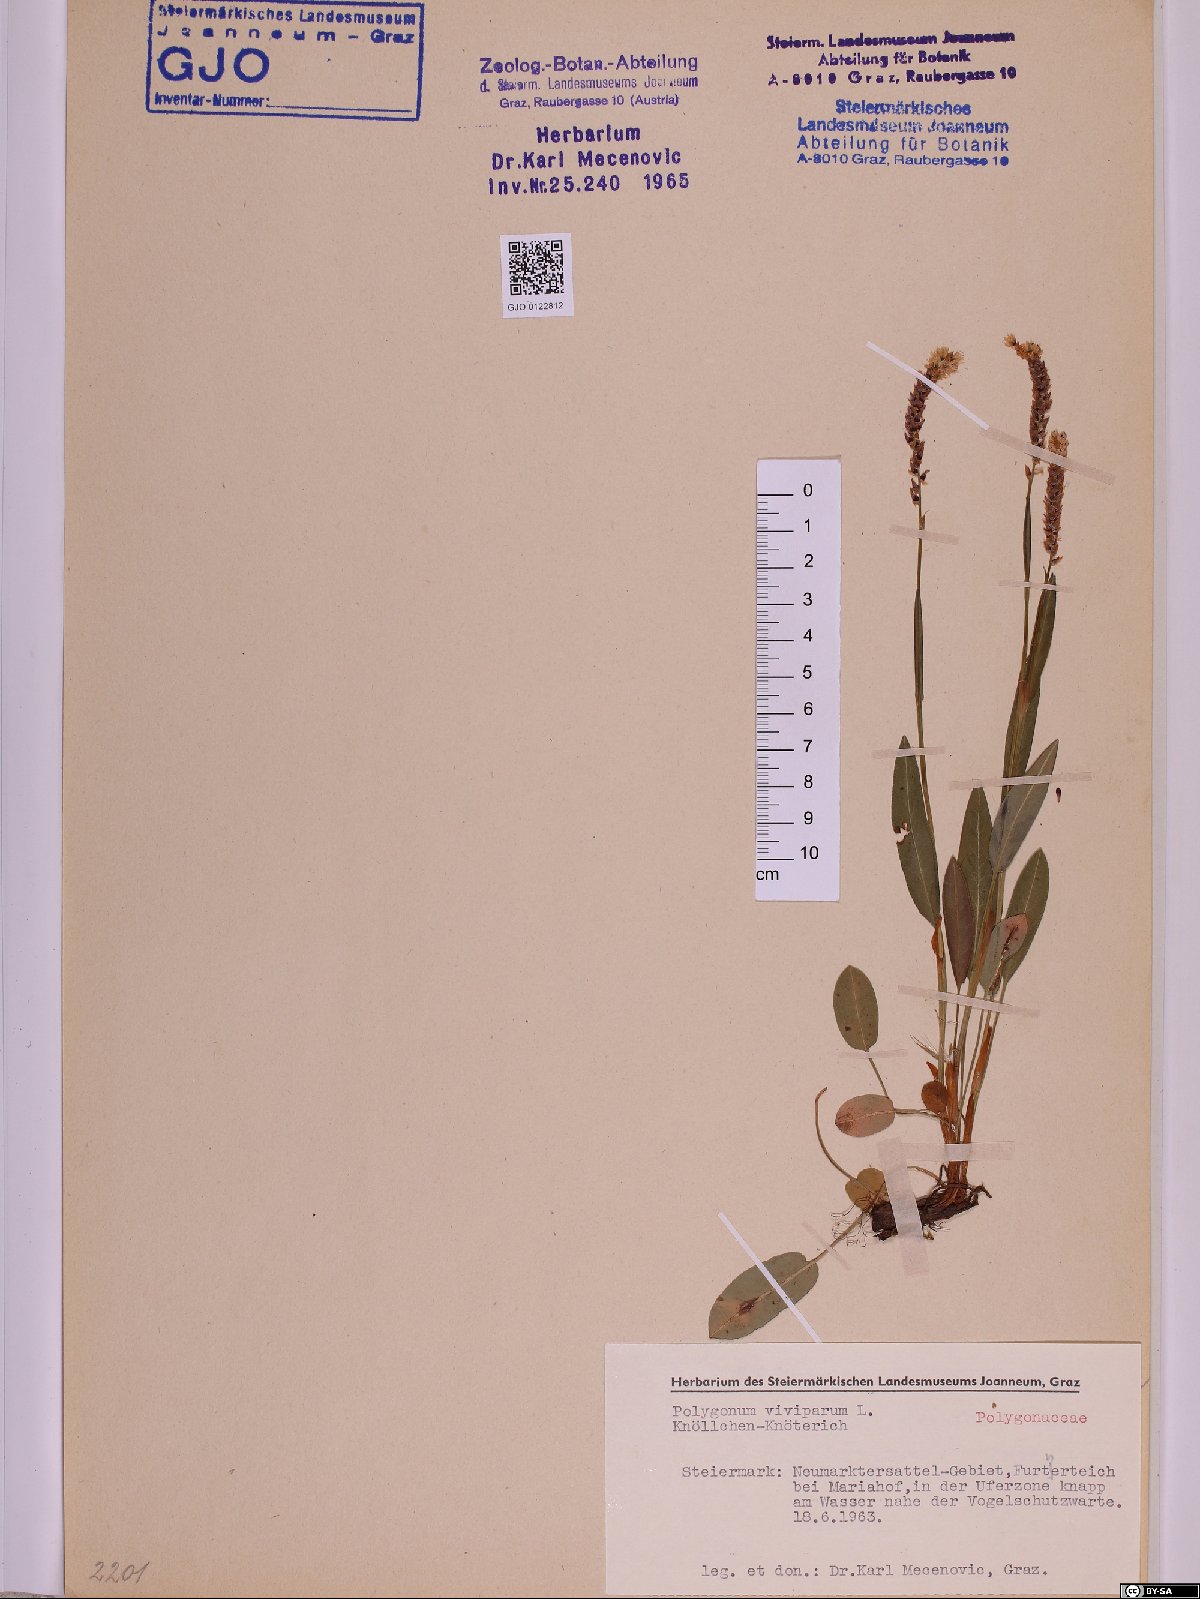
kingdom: Plantae
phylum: Tracheophyta
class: Magnoliopsida
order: Caryophyllales
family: Polygonaceae
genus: Bistorta
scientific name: Bistorta vivipara
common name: Alpine bistort
